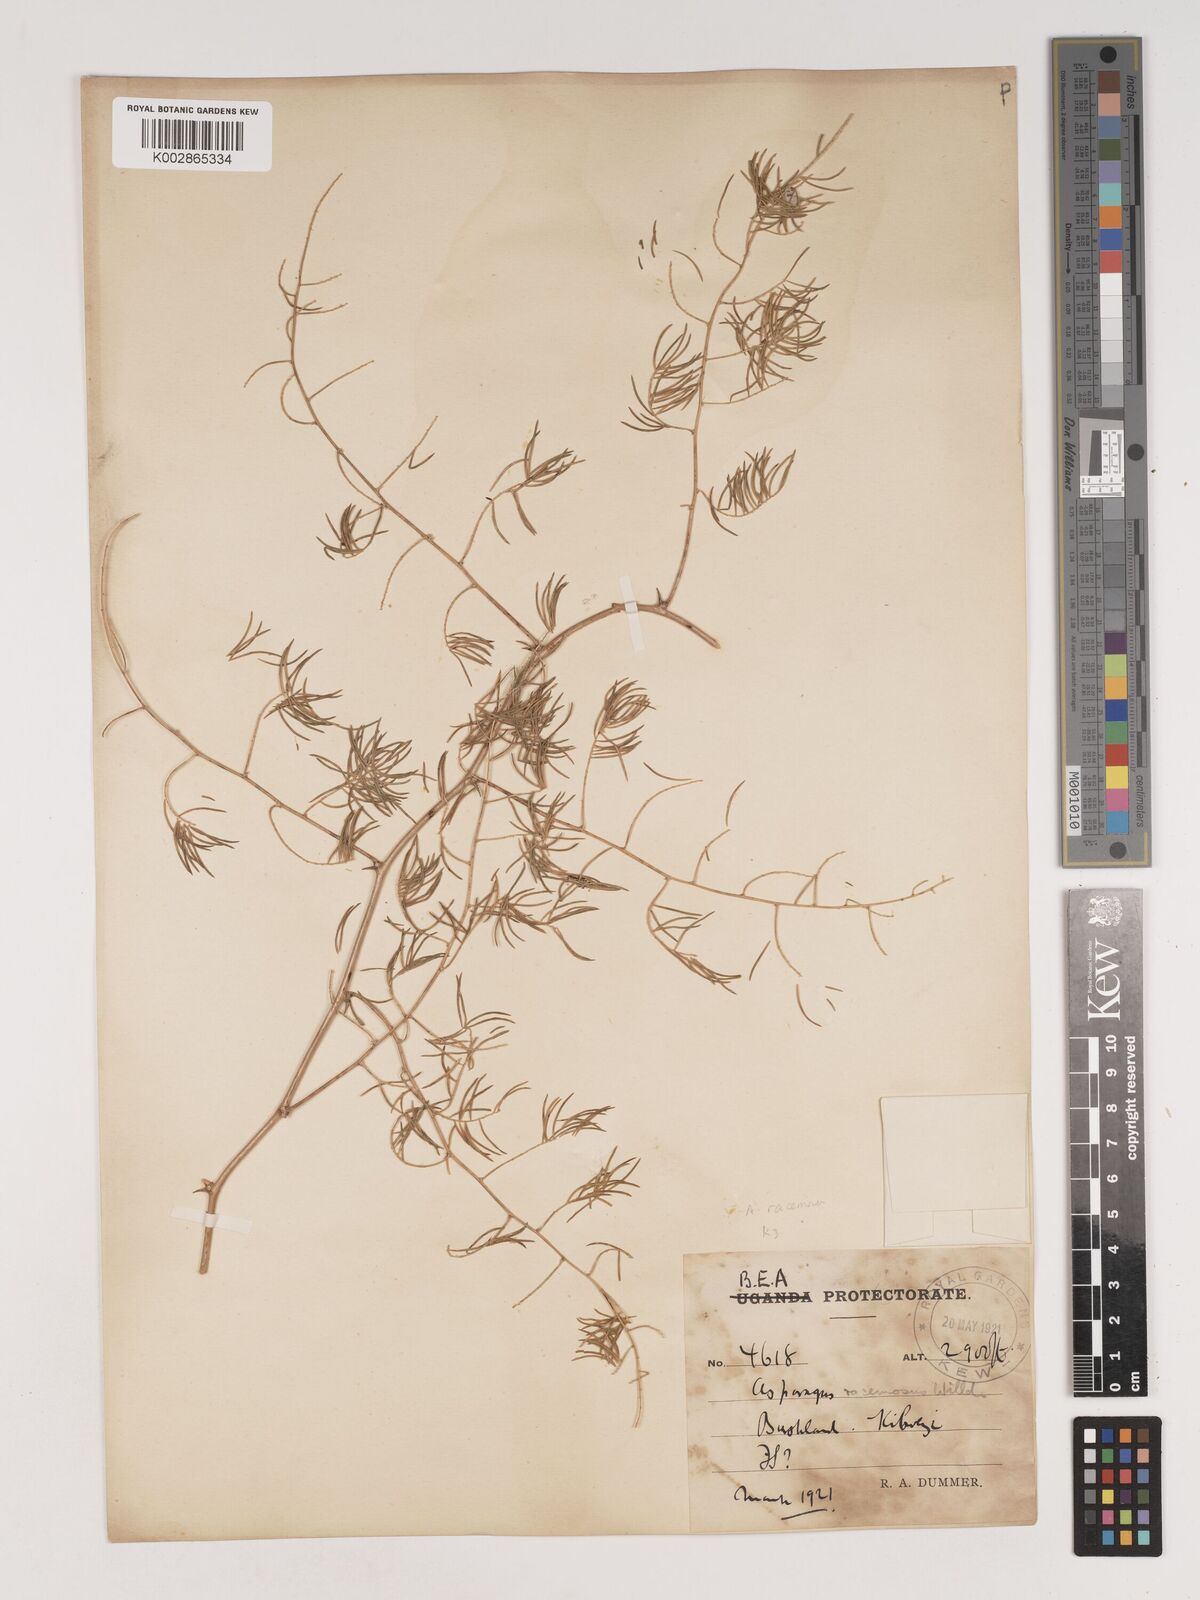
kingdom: Plantae
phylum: Tracheophyta
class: Liliopsida
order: Asparagales
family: Asparagaceae
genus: Asparagus
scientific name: Asparagus
